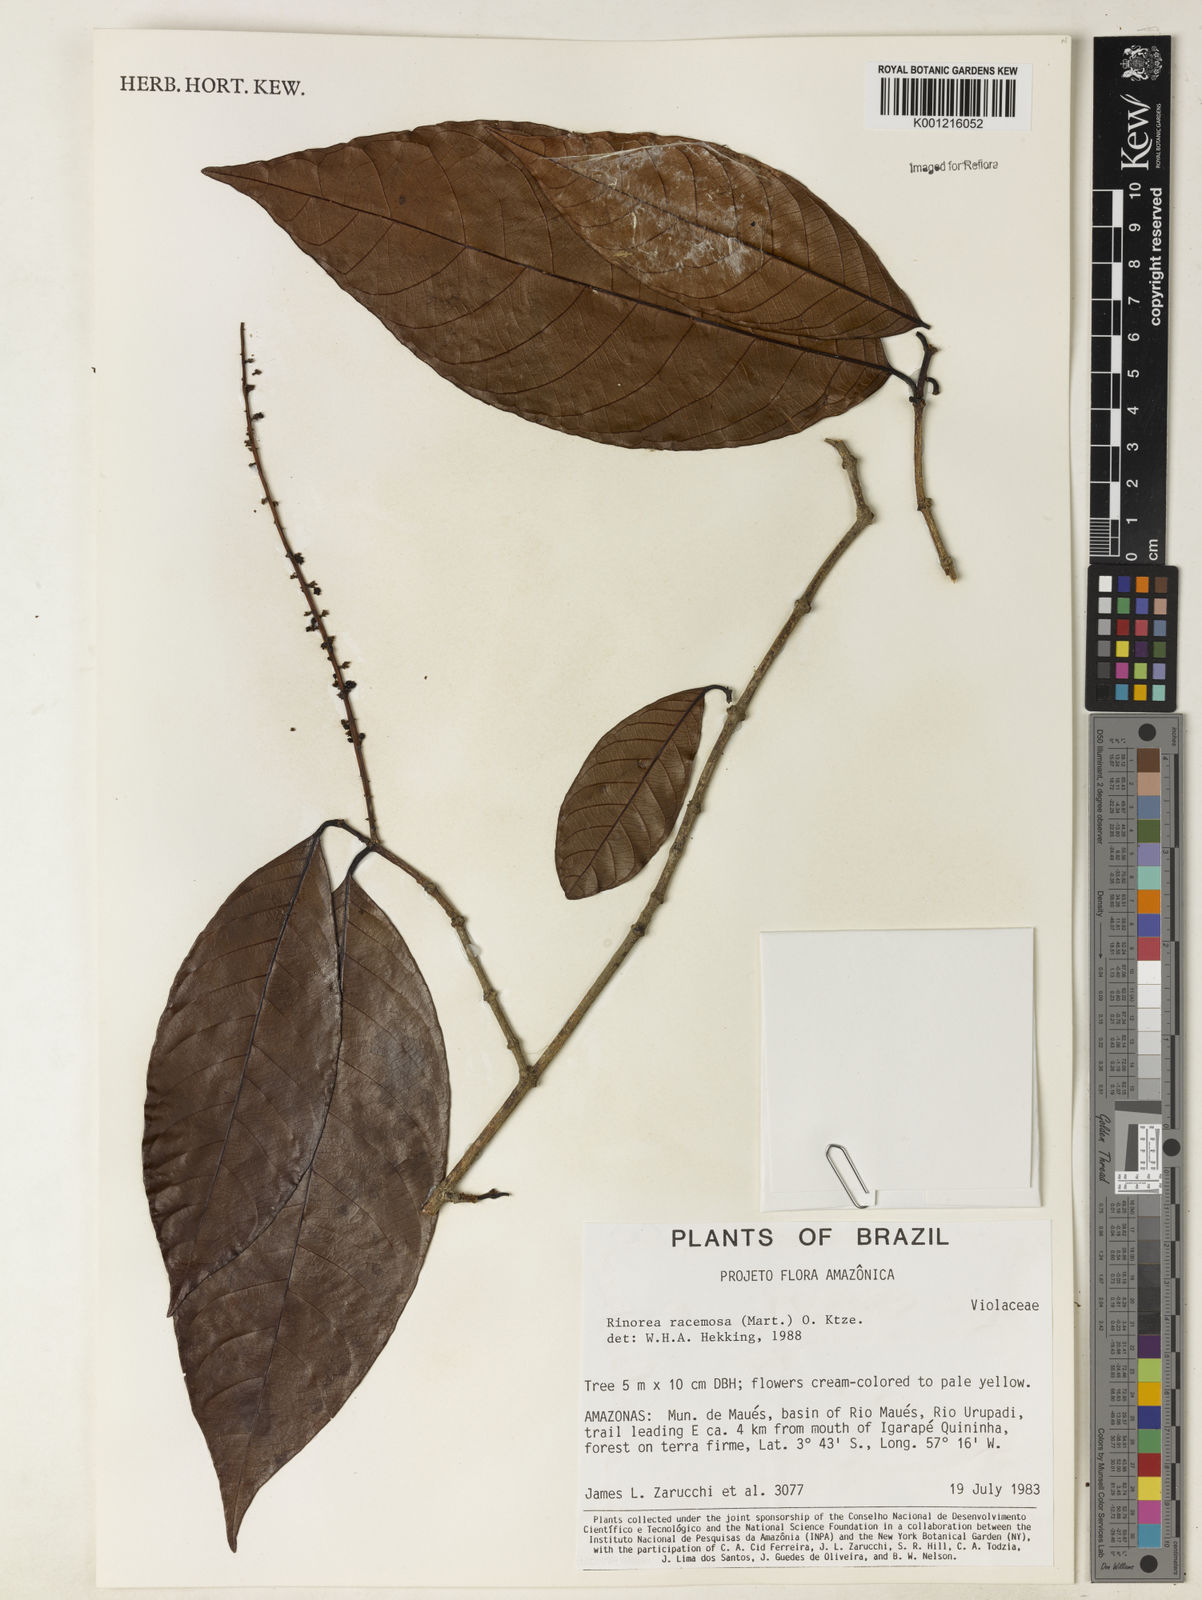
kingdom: Plantae
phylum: Tracheophyta
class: Magnoliopsida
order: Malpighiales
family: Violaceae
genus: Rinorea
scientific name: Rinorea racemosa
